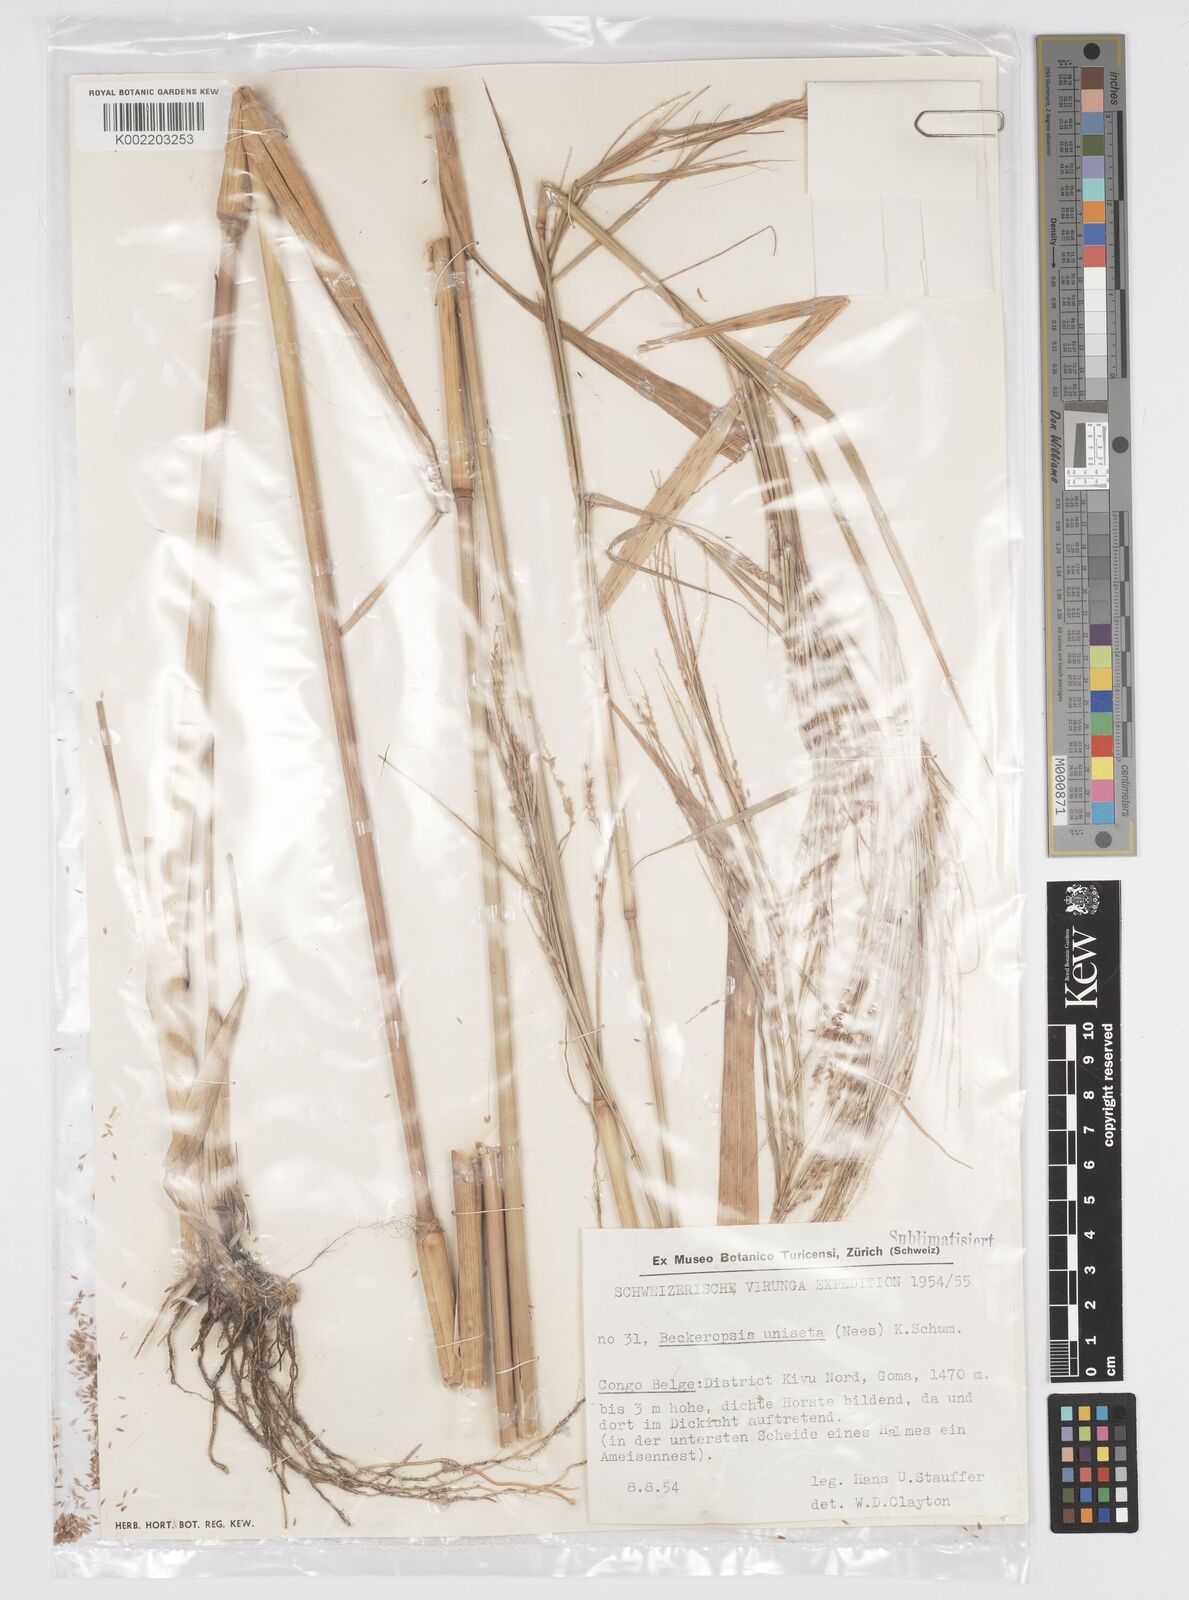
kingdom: Plantae
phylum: Tracheophyta
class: Liliopsida
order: Poales
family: Poaceae
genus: Cenchrus
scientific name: Cenchrus unisetus
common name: Natal grass
